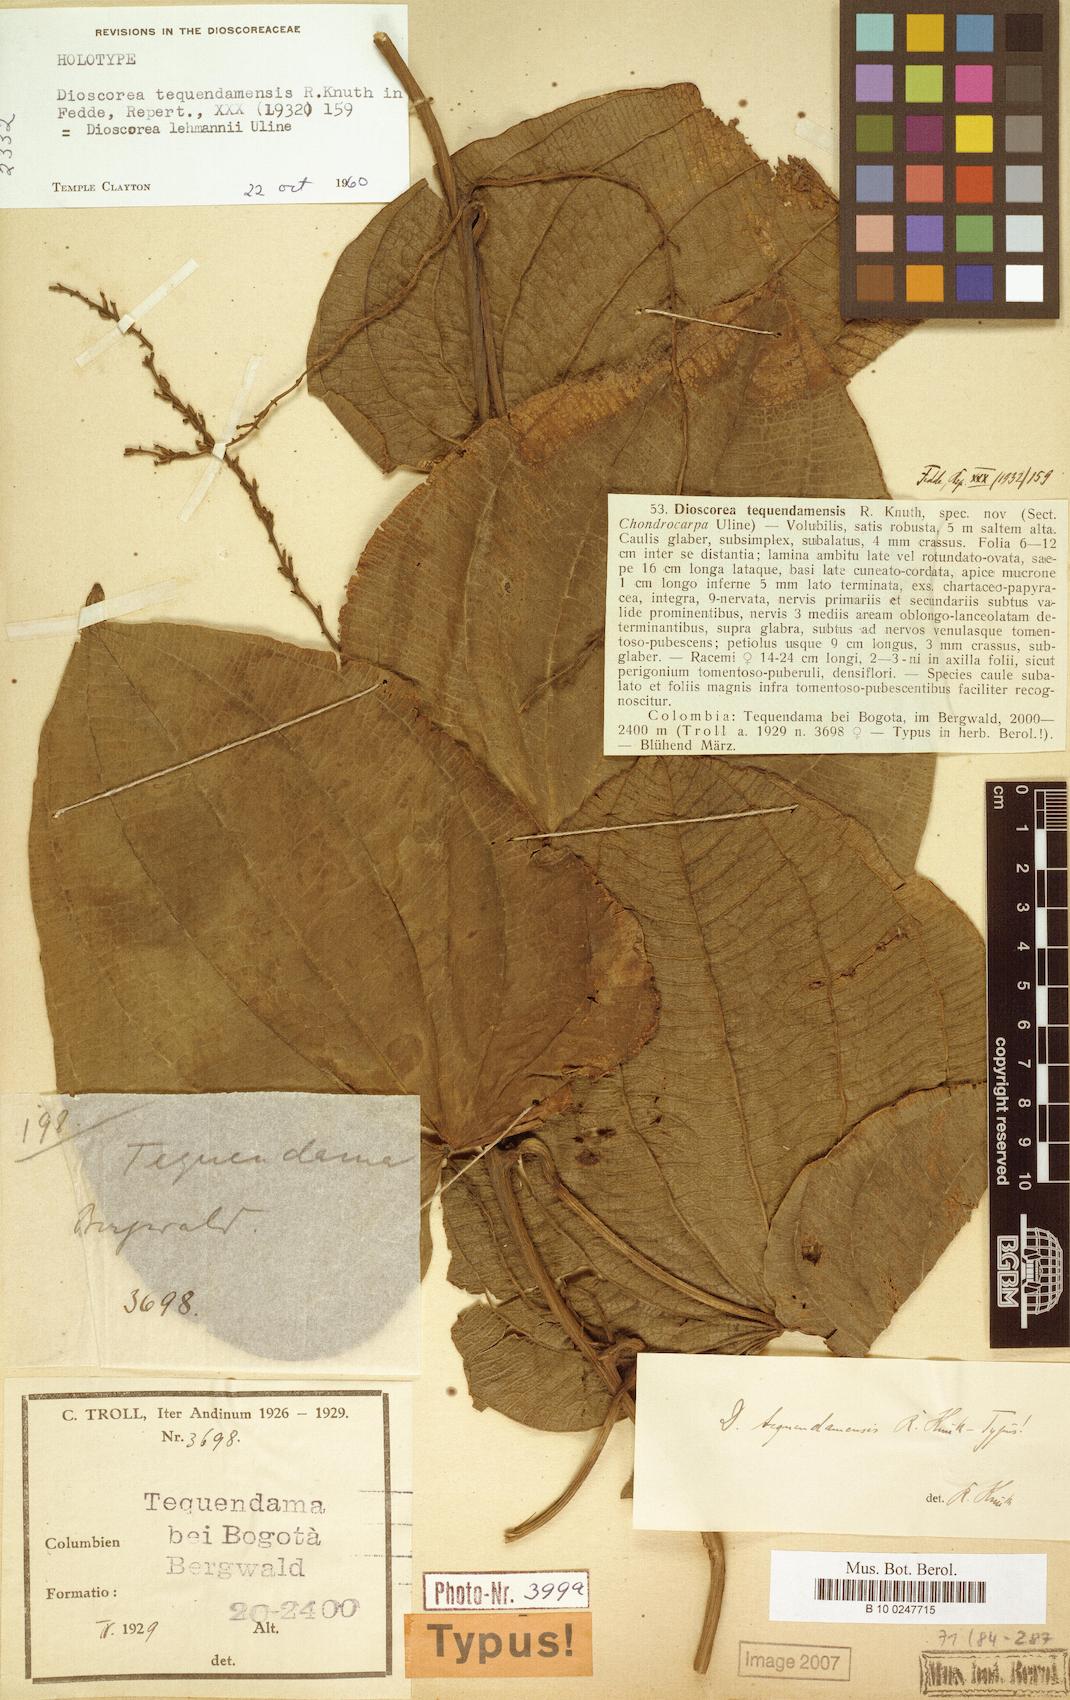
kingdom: Plantae
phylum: Tracheophyta
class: Liliopsida
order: Dioscoreales
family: Dioscoreaceae
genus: Dioscorea
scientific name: Dioscorea lehmannii
